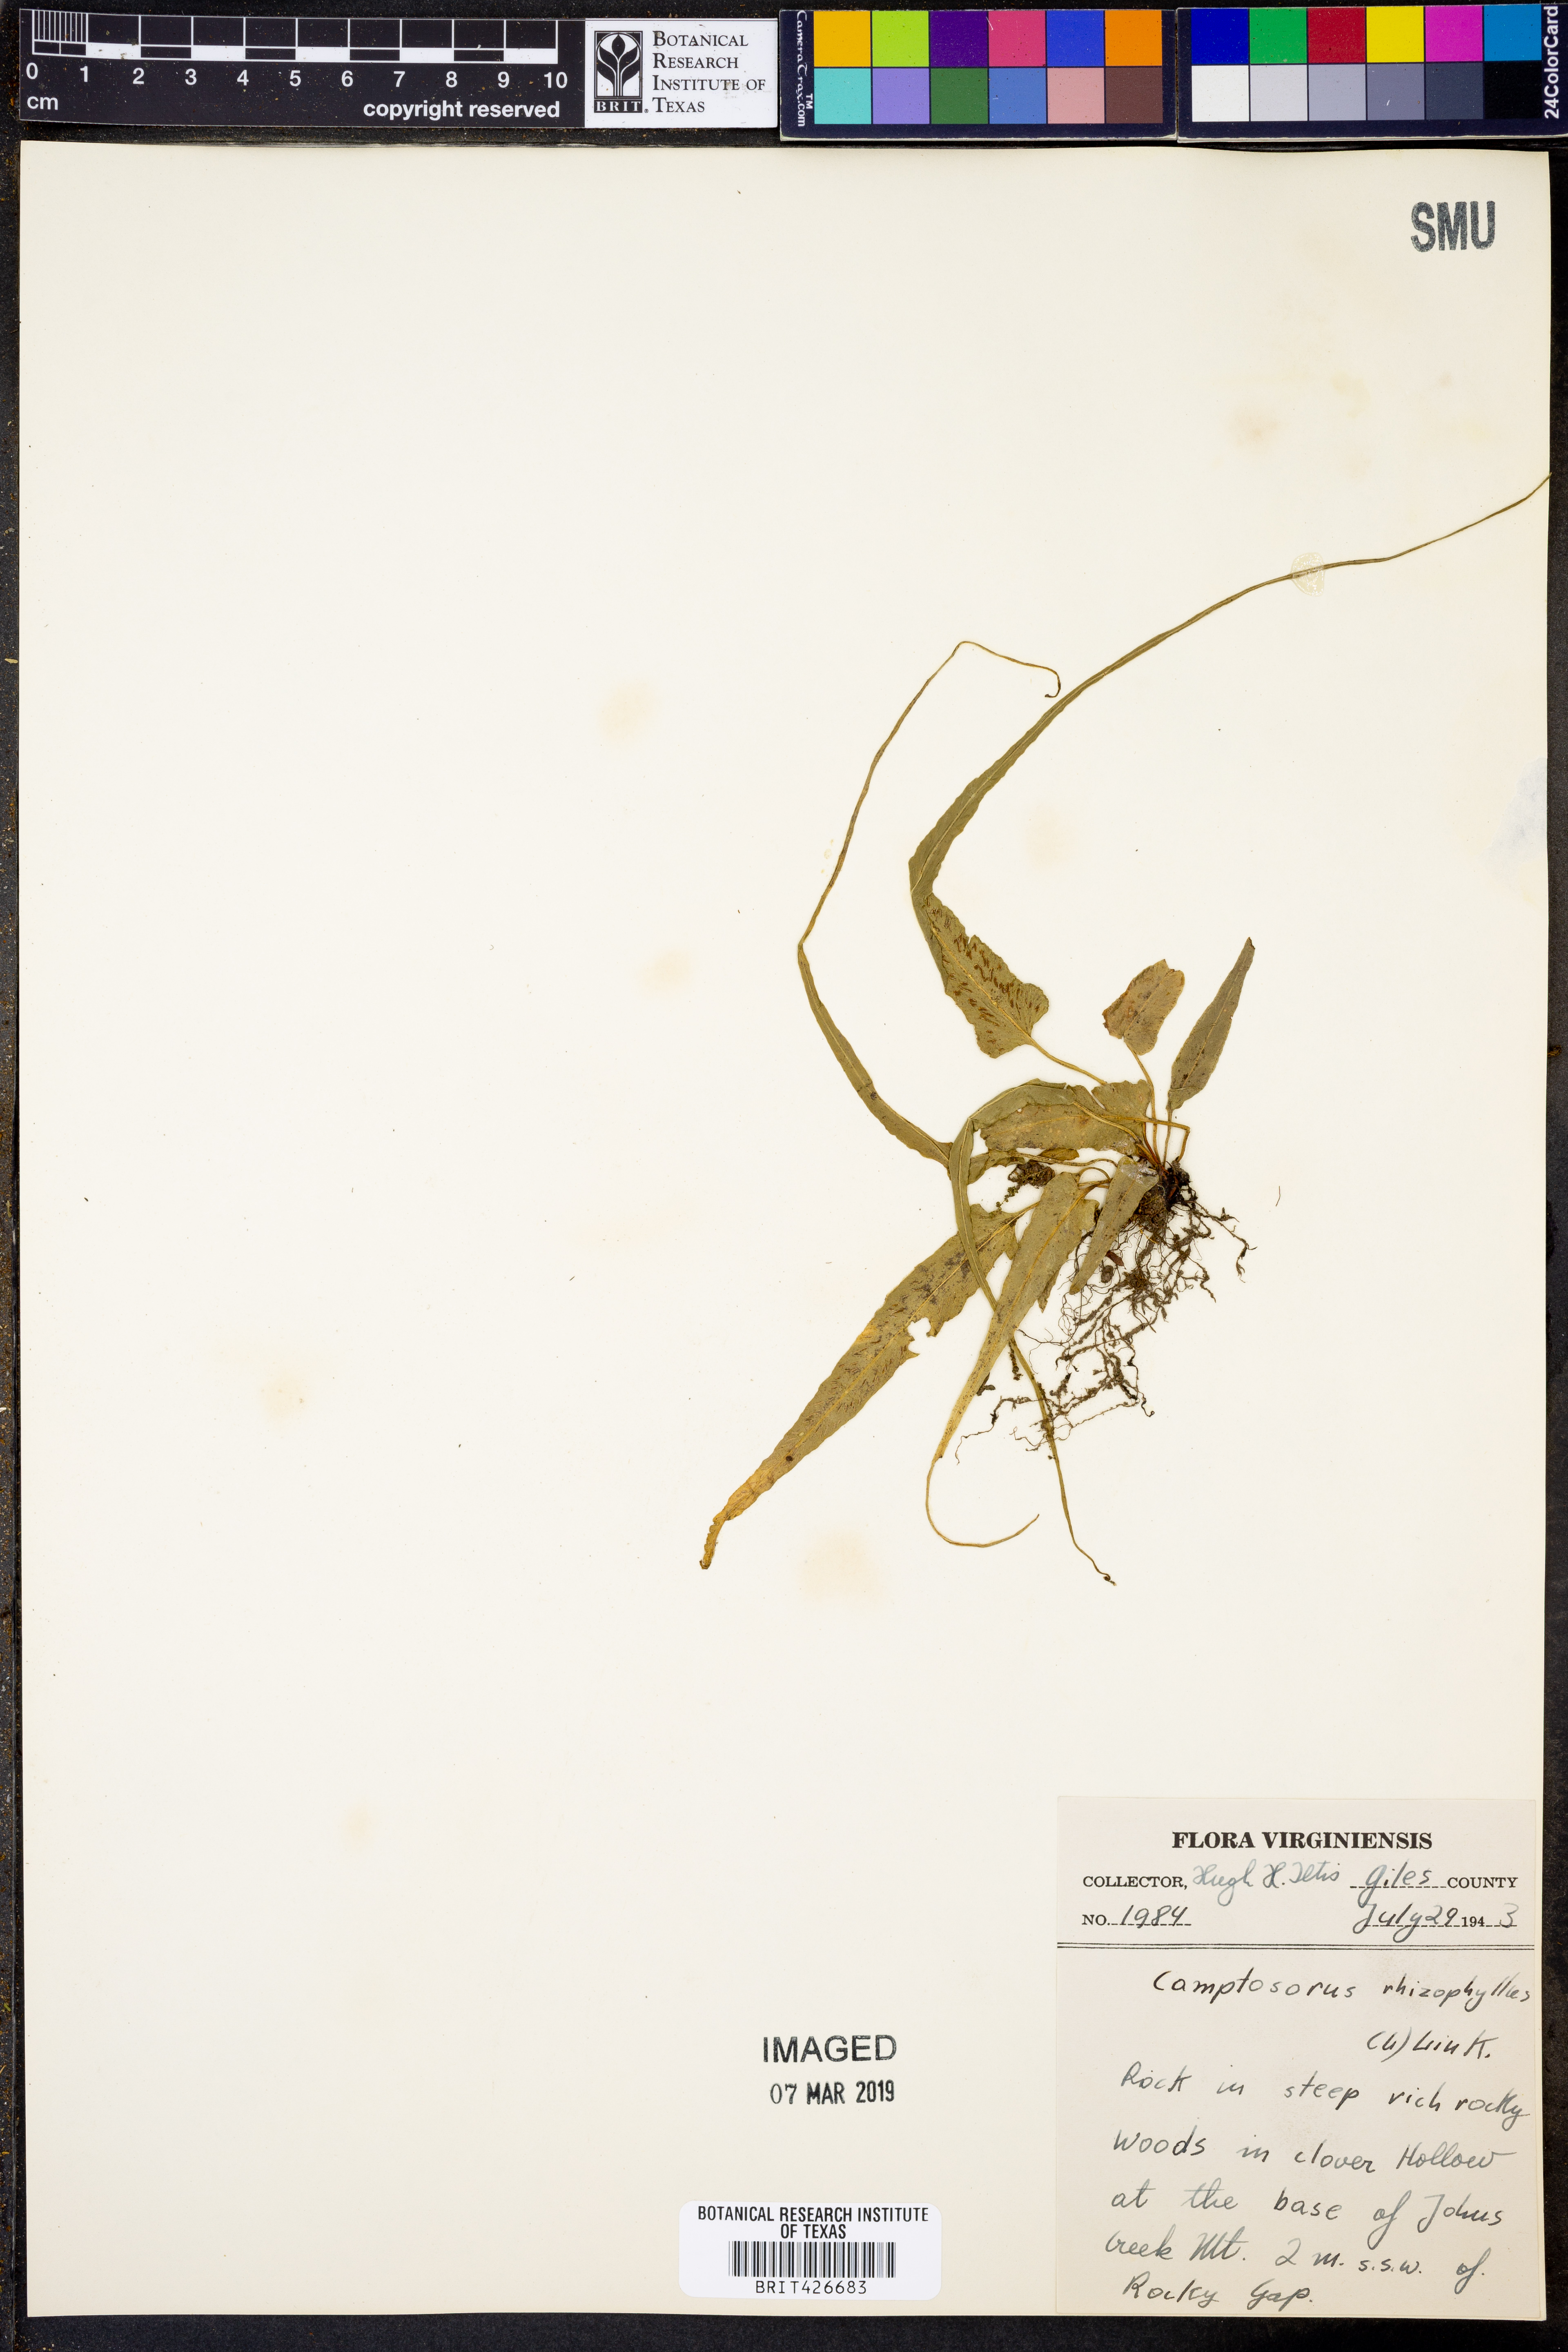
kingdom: Plantae
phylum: Tracheophyta
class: Polypodiopsida
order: Polypodiales
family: Aspleniaceae
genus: Asplenium
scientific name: Asplenium rhizophyllum
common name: Walking fern
